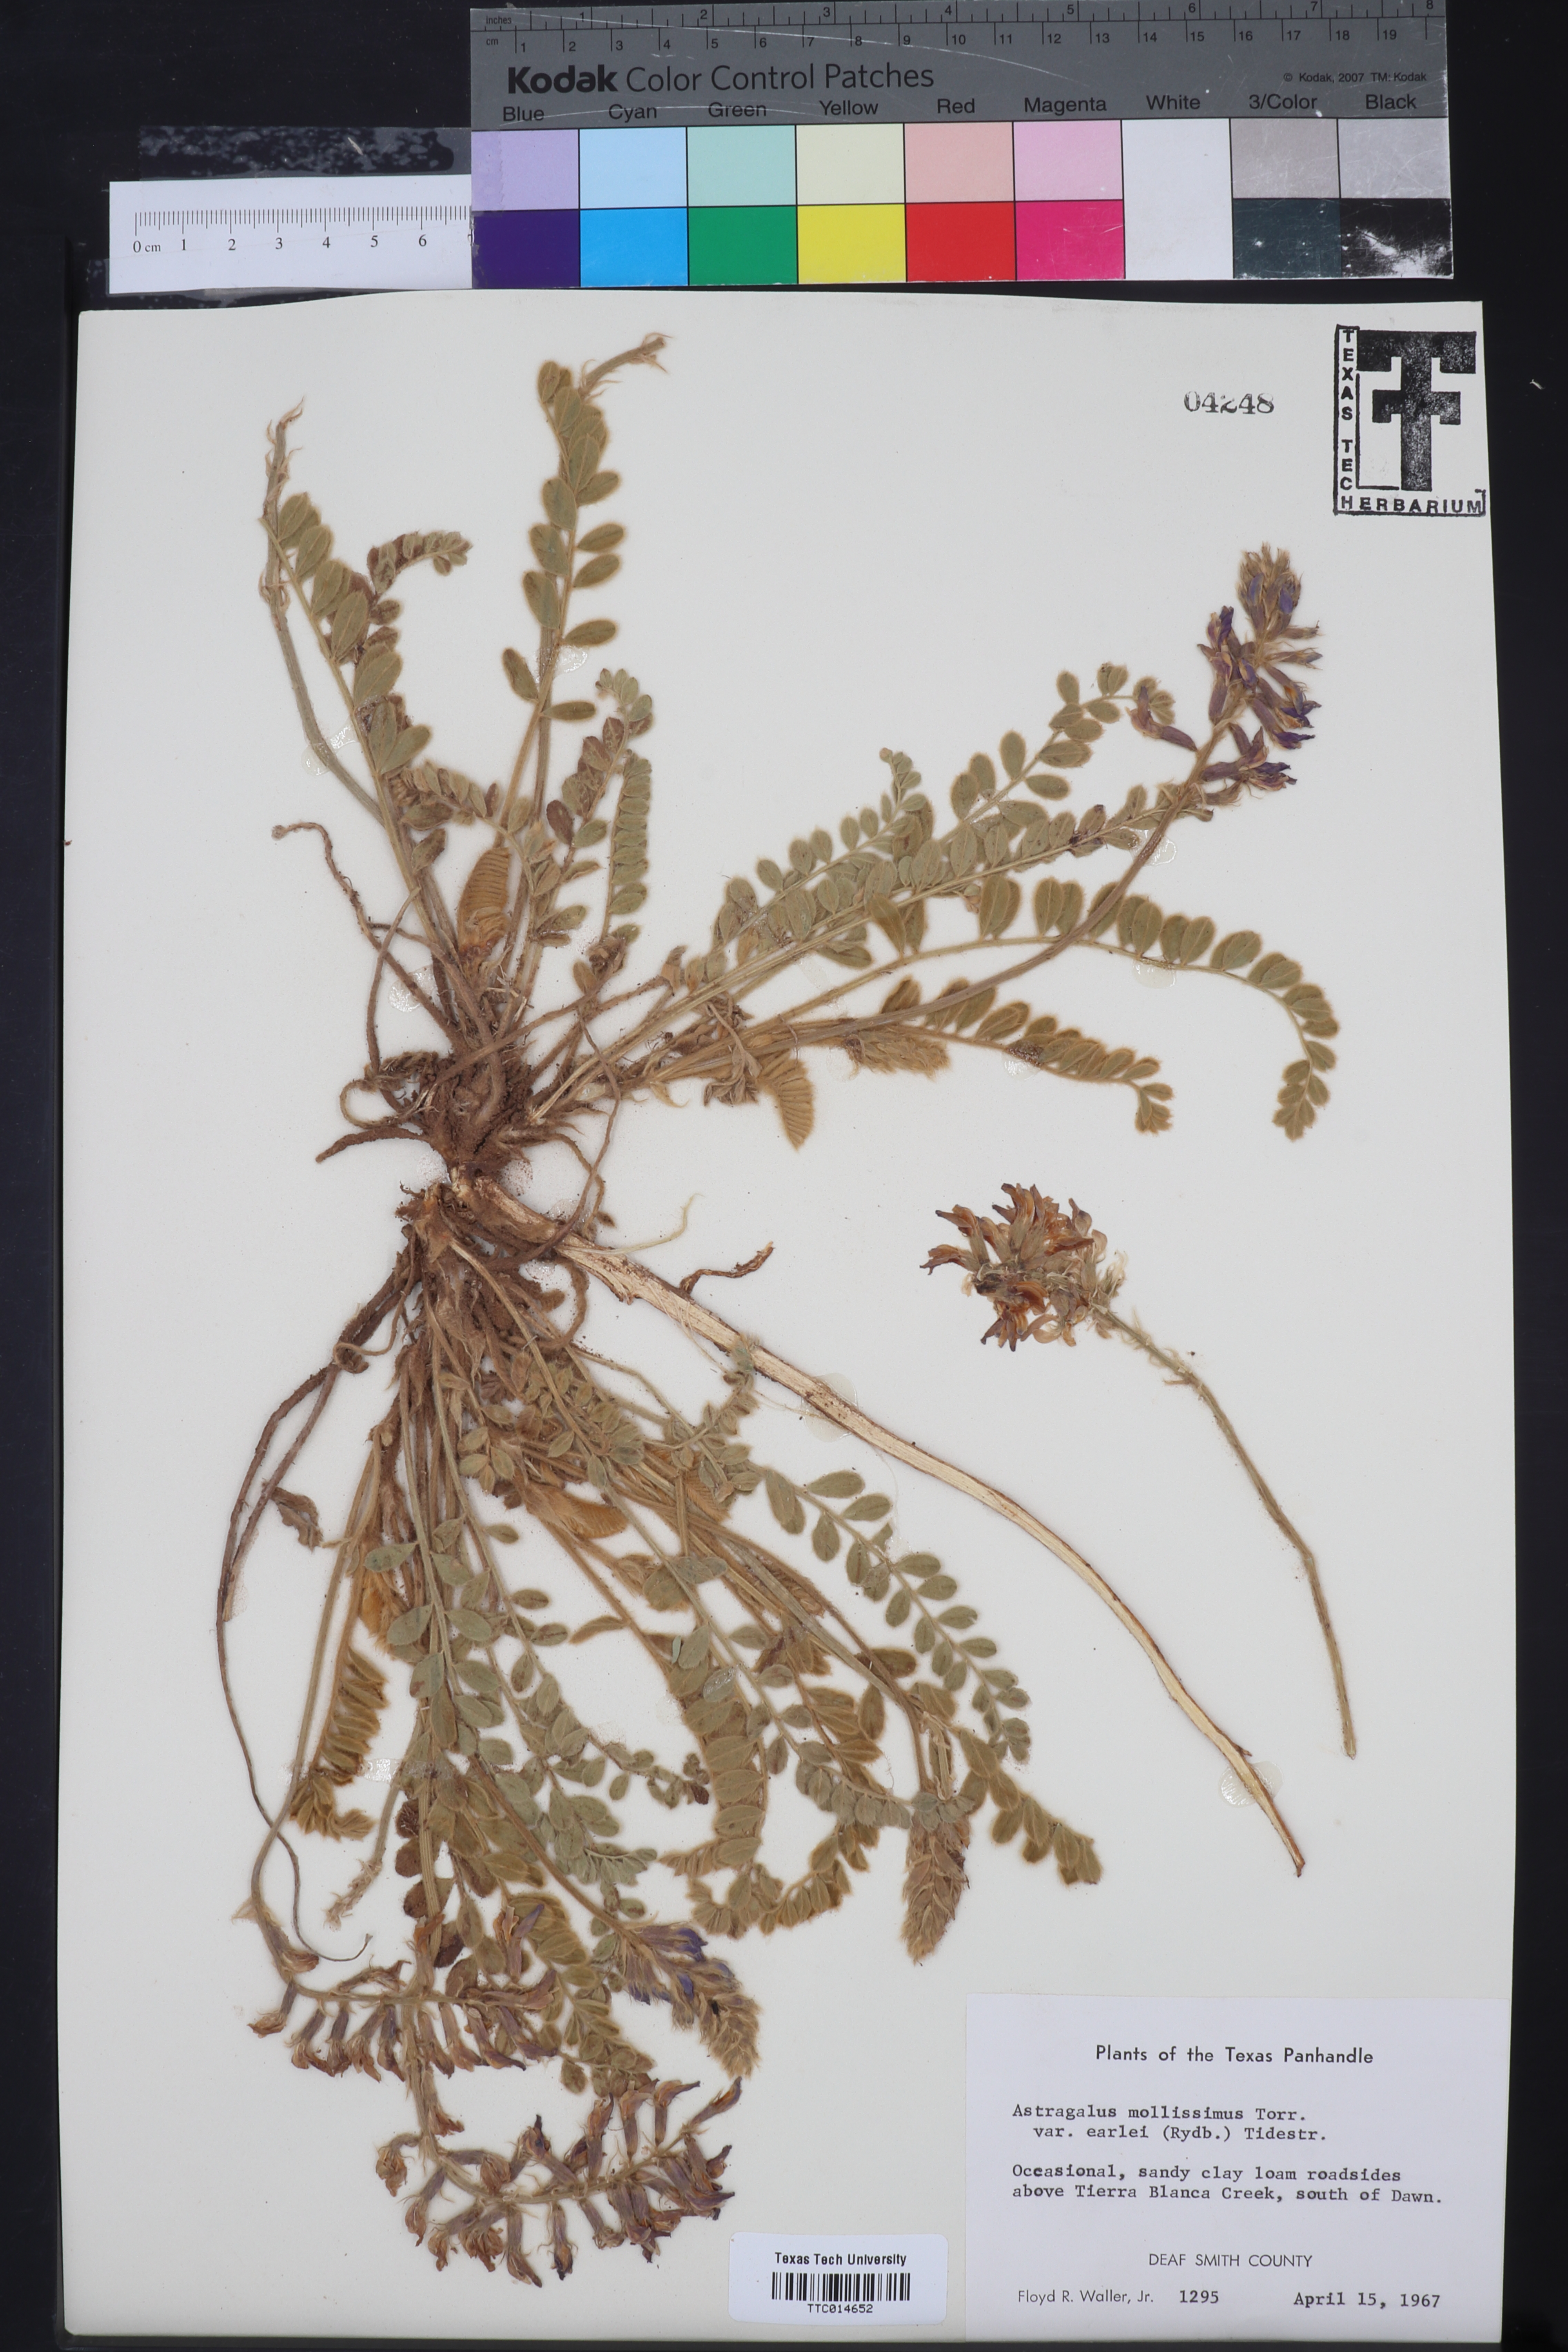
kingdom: Plantae
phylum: Tracheophyta
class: Magnoliopsida
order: Fabales
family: Fabaceae
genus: Astragalus
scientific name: Astragalus mollissimus
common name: Woolly locoweed
